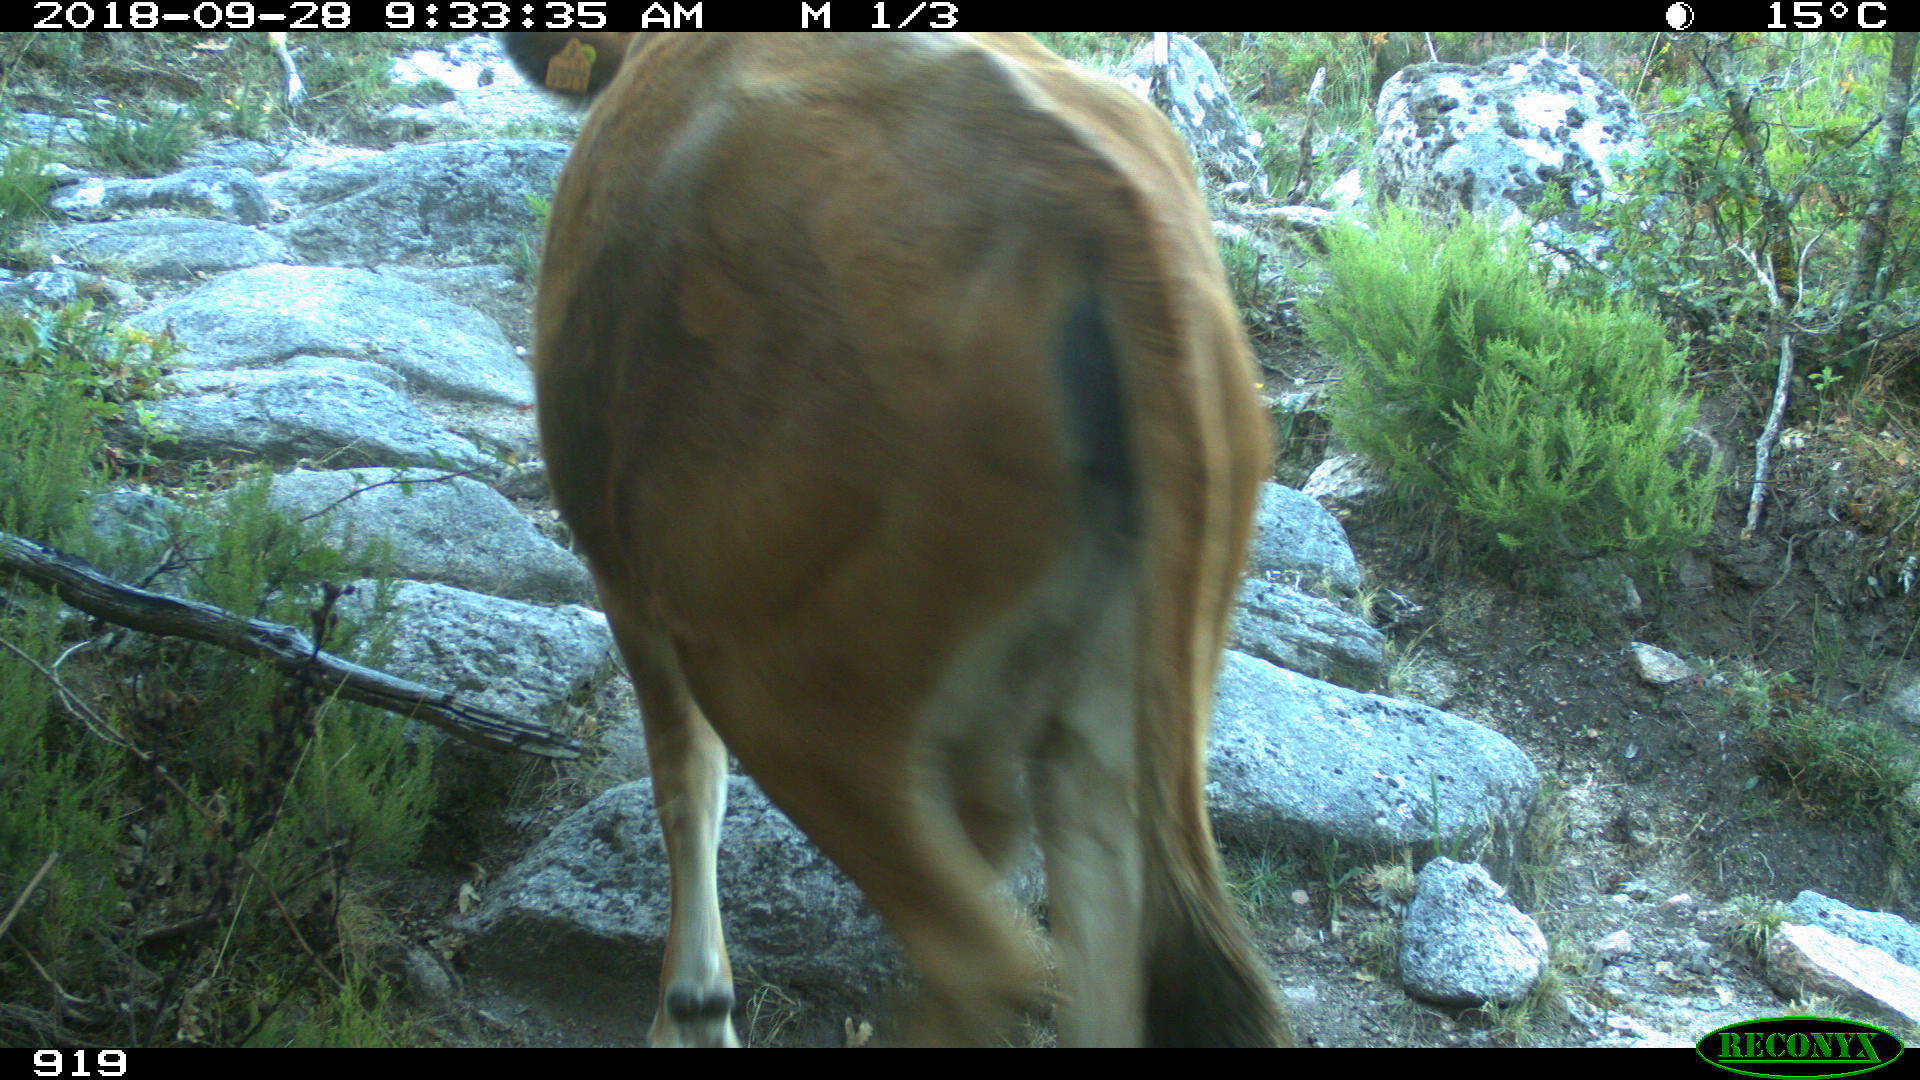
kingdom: Animalia
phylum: Chordata
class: Mammalia
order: Artiodactyla
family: Bovidae
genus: Bos
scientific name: Bos taurus
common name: Domesticated cattle
